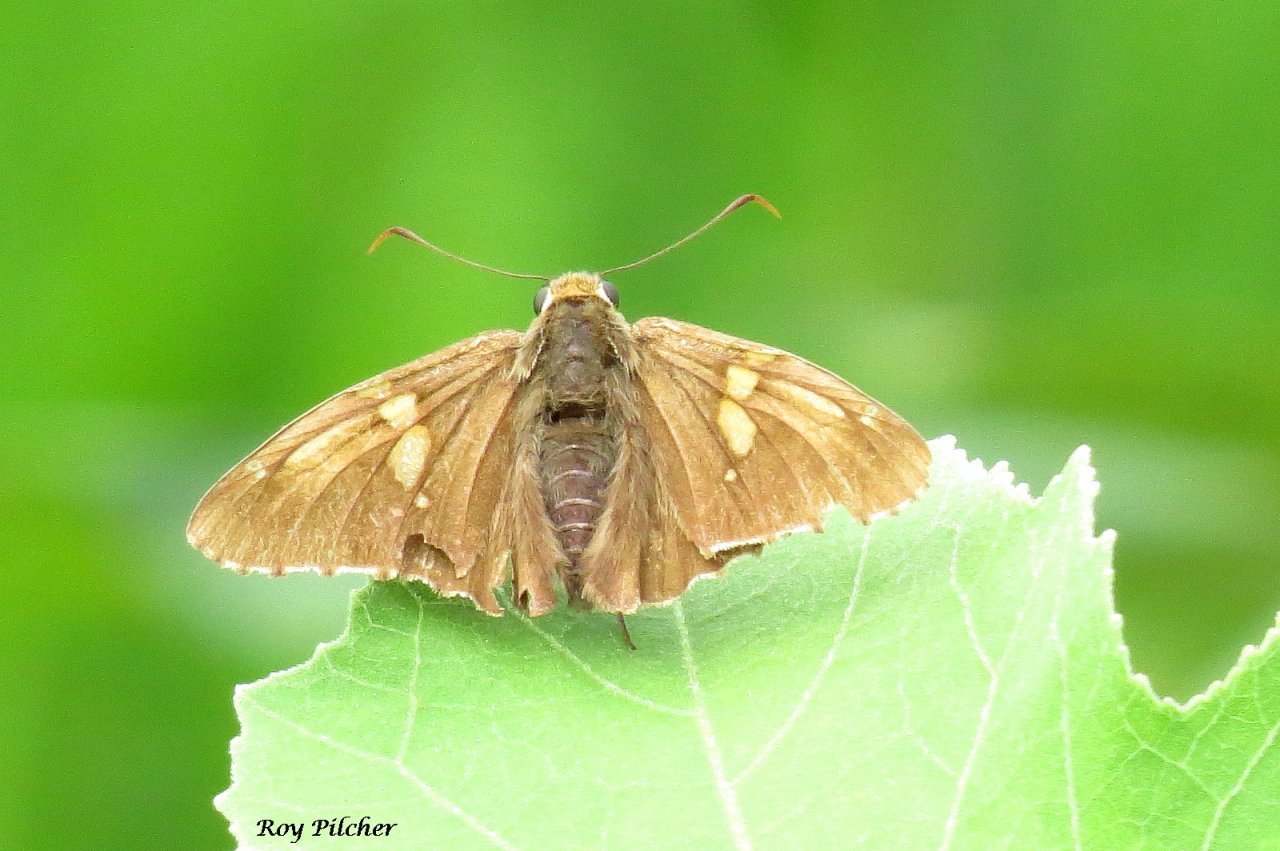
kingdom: Animalia
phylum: Arthropoda
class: Insecta
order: Lepidoptera
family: Hesperiidae
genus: Epargyreus
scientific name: Epargyreus clarus
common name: Silver-spotted Skipper
